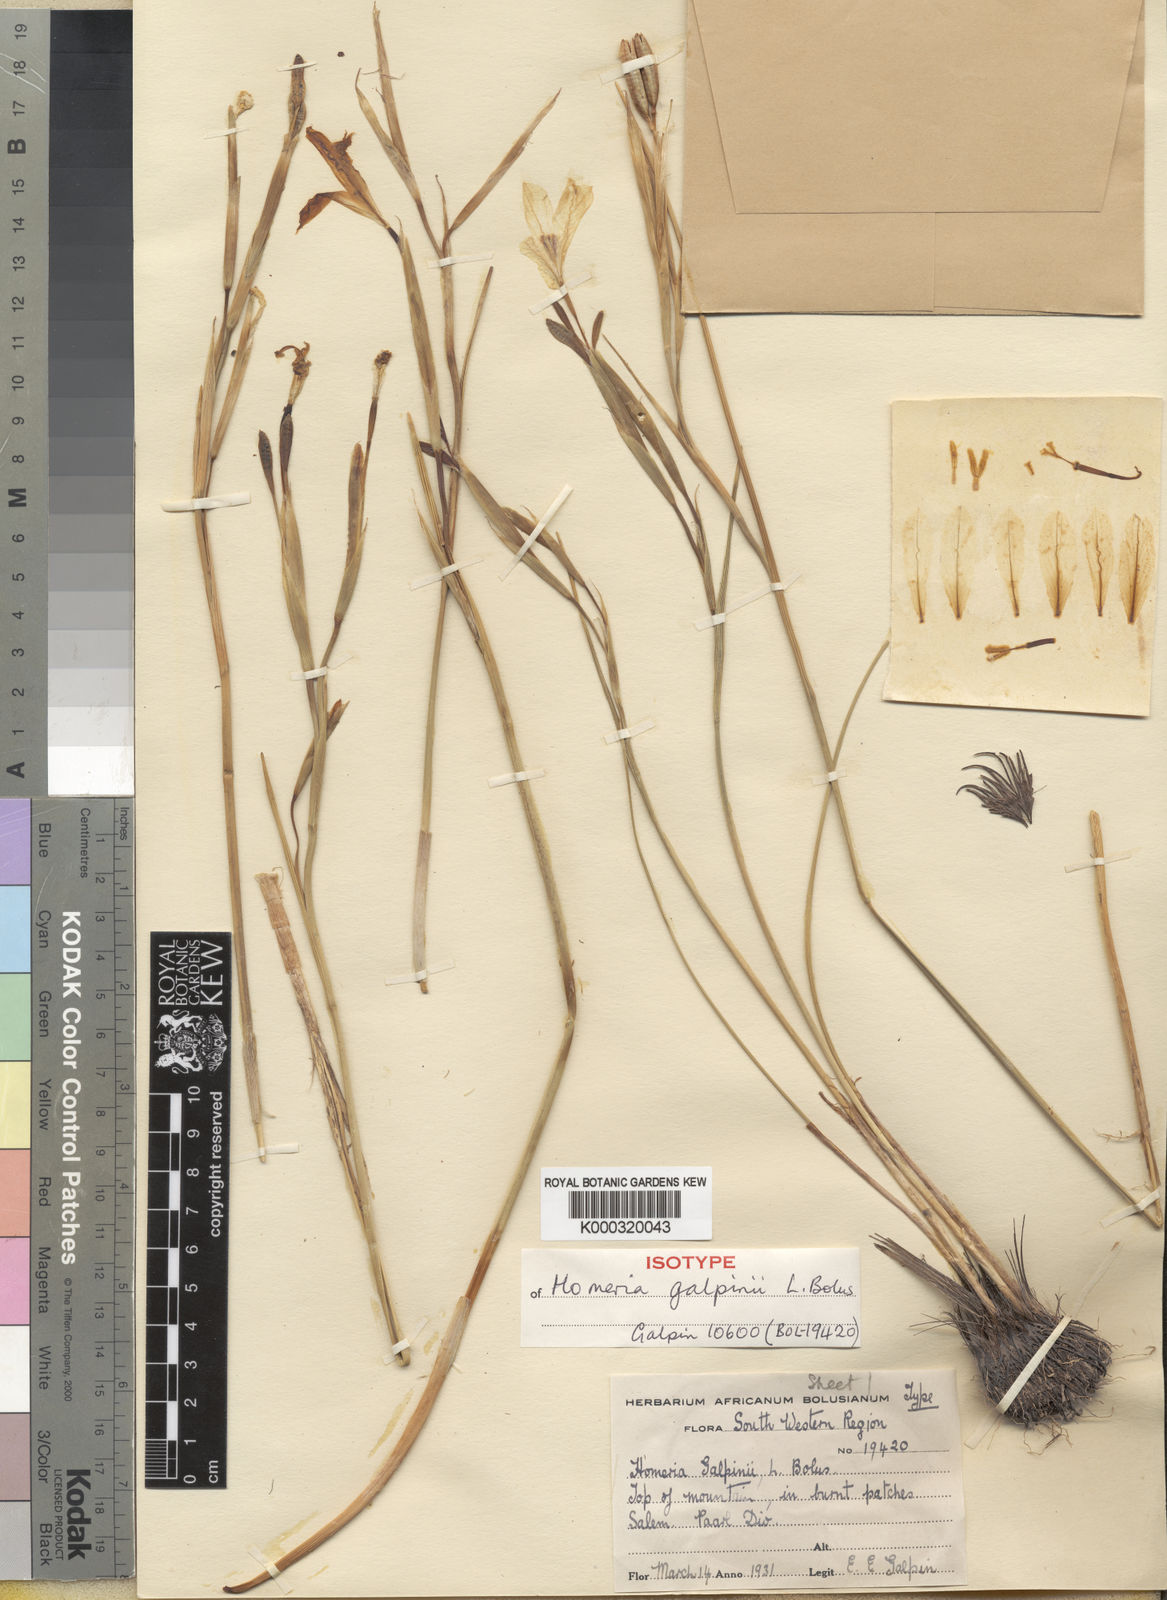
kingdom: Plantae
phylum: Tracheophyta
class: Liliopsida
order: Asparagales
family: Iridaceae
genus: Moraea
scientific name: Moraea pyrophila
